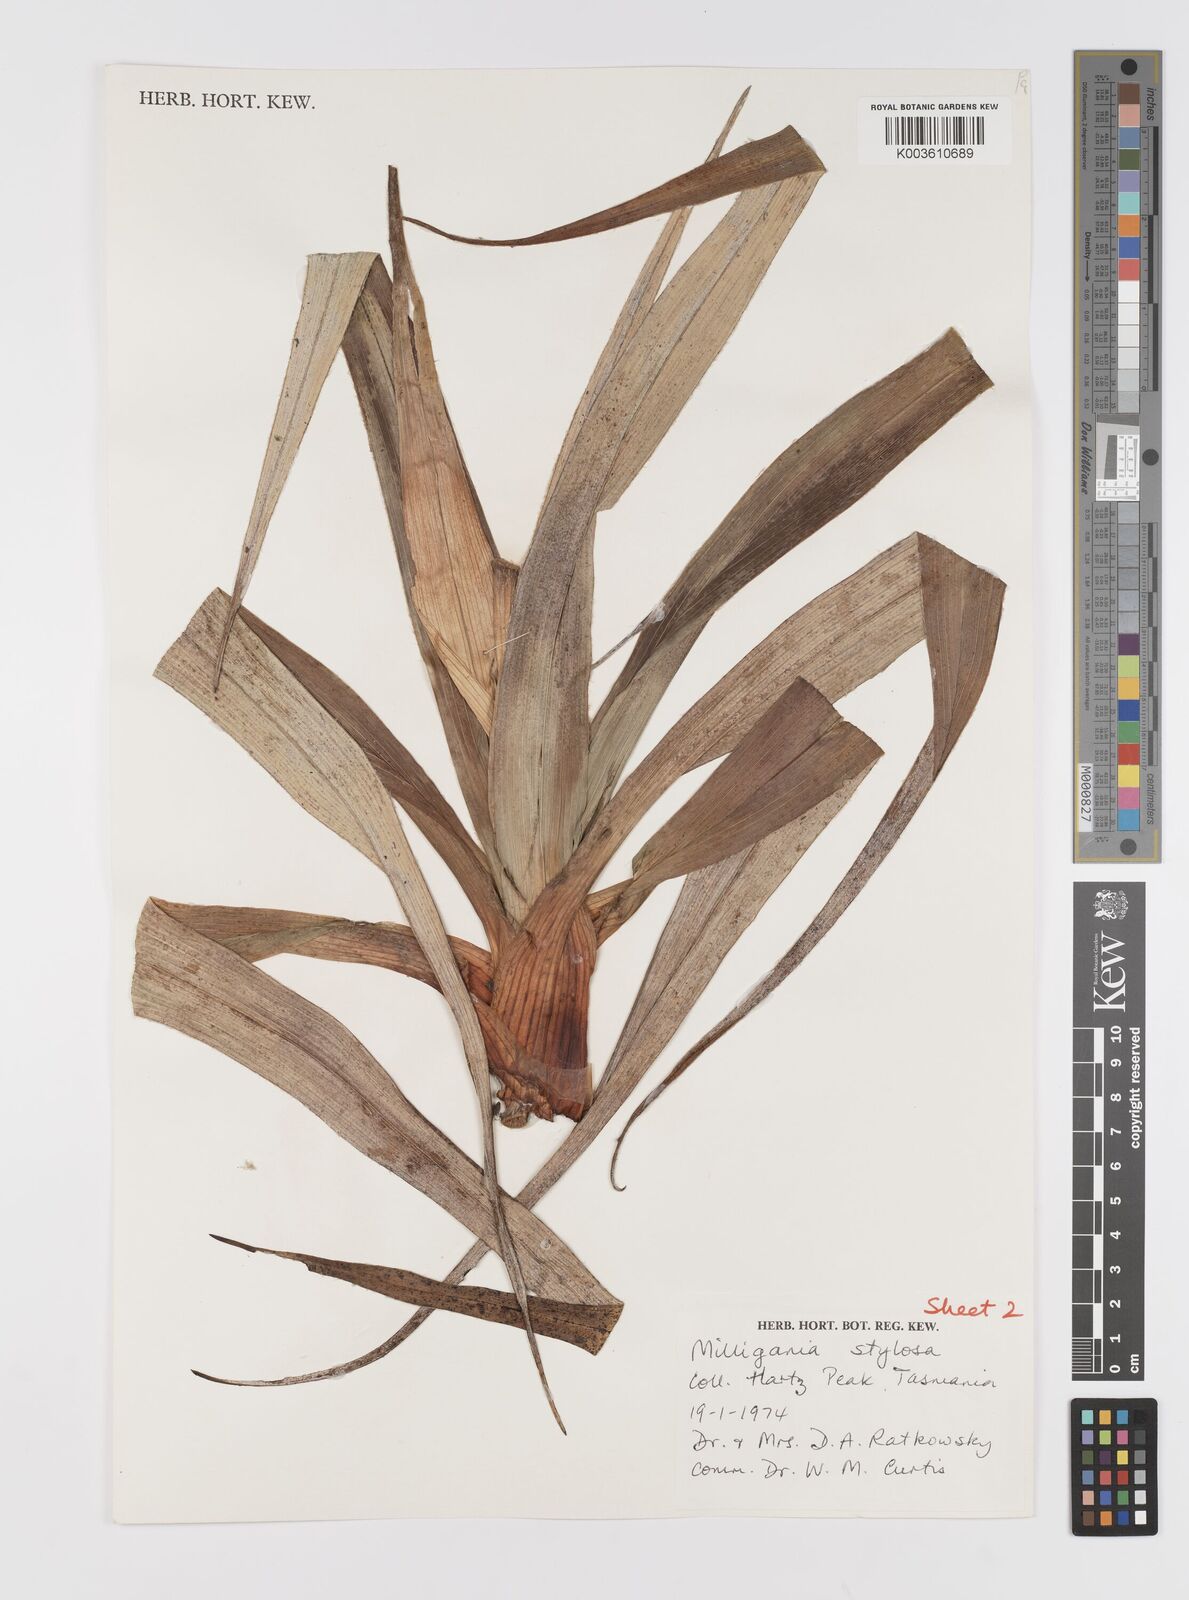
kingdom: Plantae
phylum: Tracheophyta
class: Liliopsida
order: Asparagales
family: Asteliaceae
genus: Milligania
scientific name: Milligania stylosa
